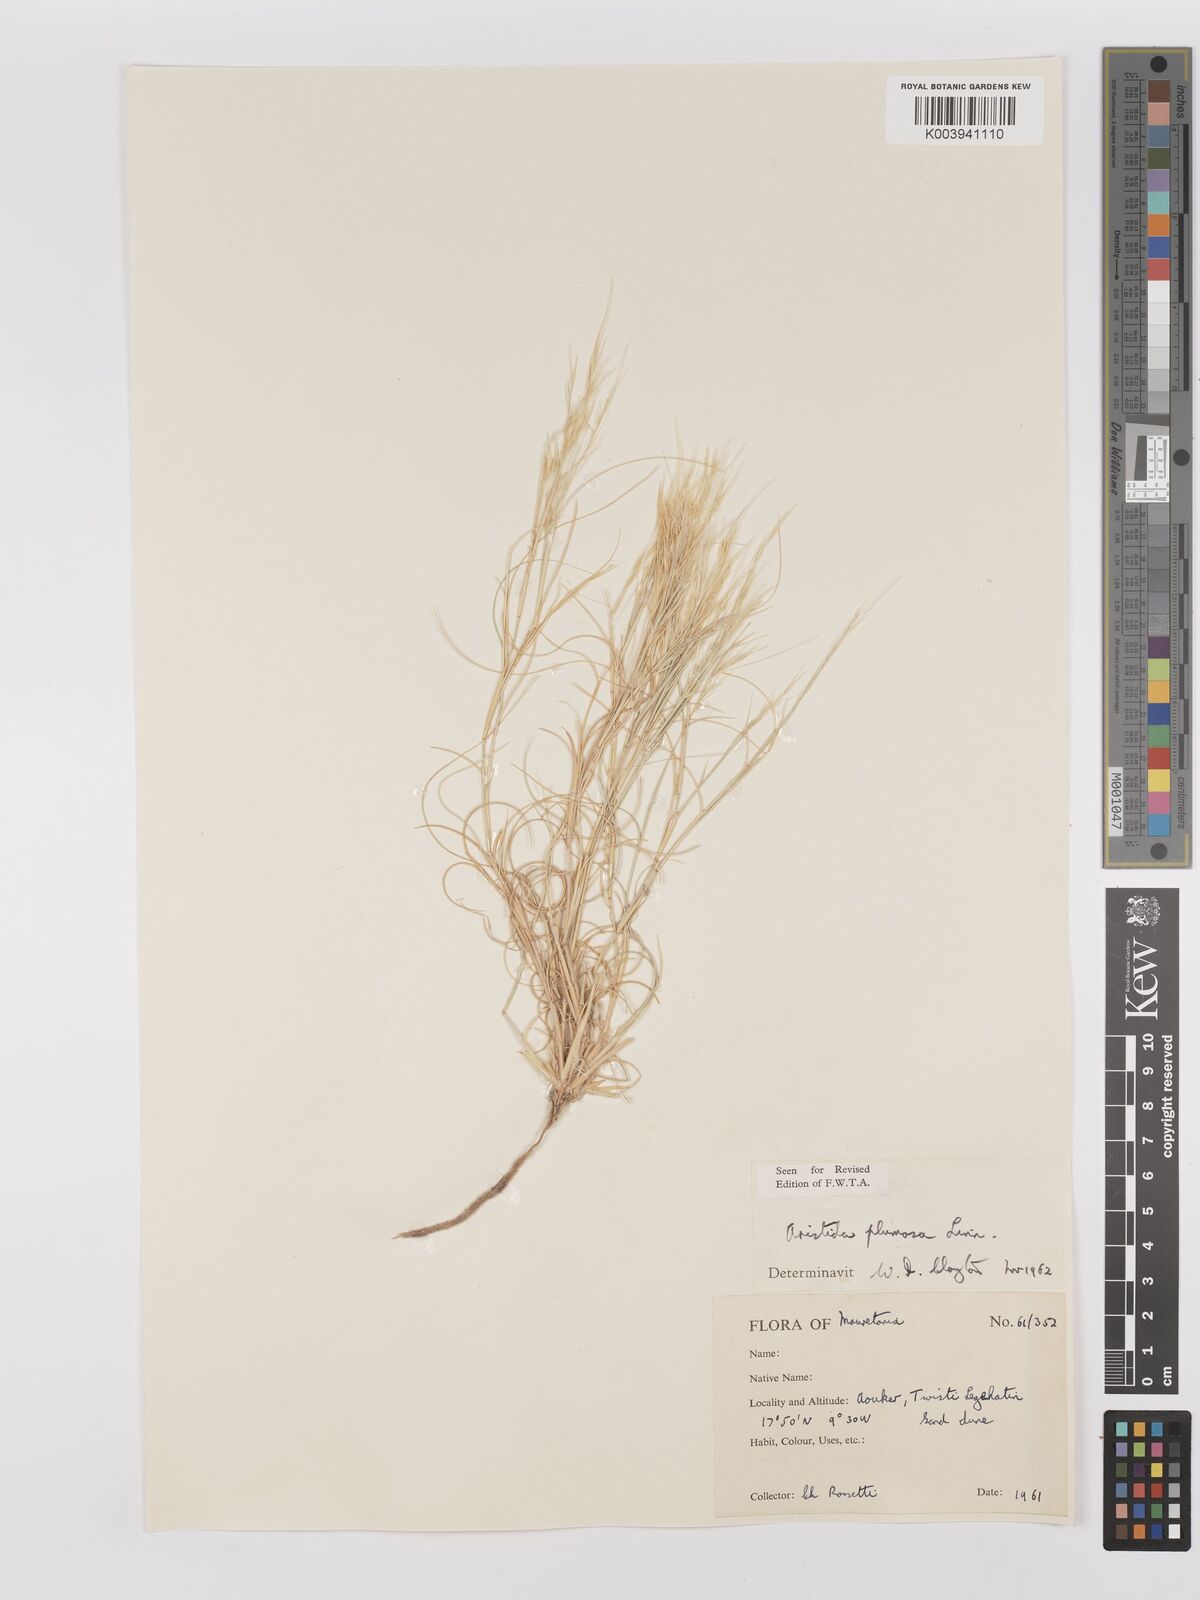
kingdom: Plantae
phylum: Tracheophyta
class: Liliopsida
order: Poales
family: Poaceae
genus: Stipagrostis
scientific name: Stipagrostis plumosa
